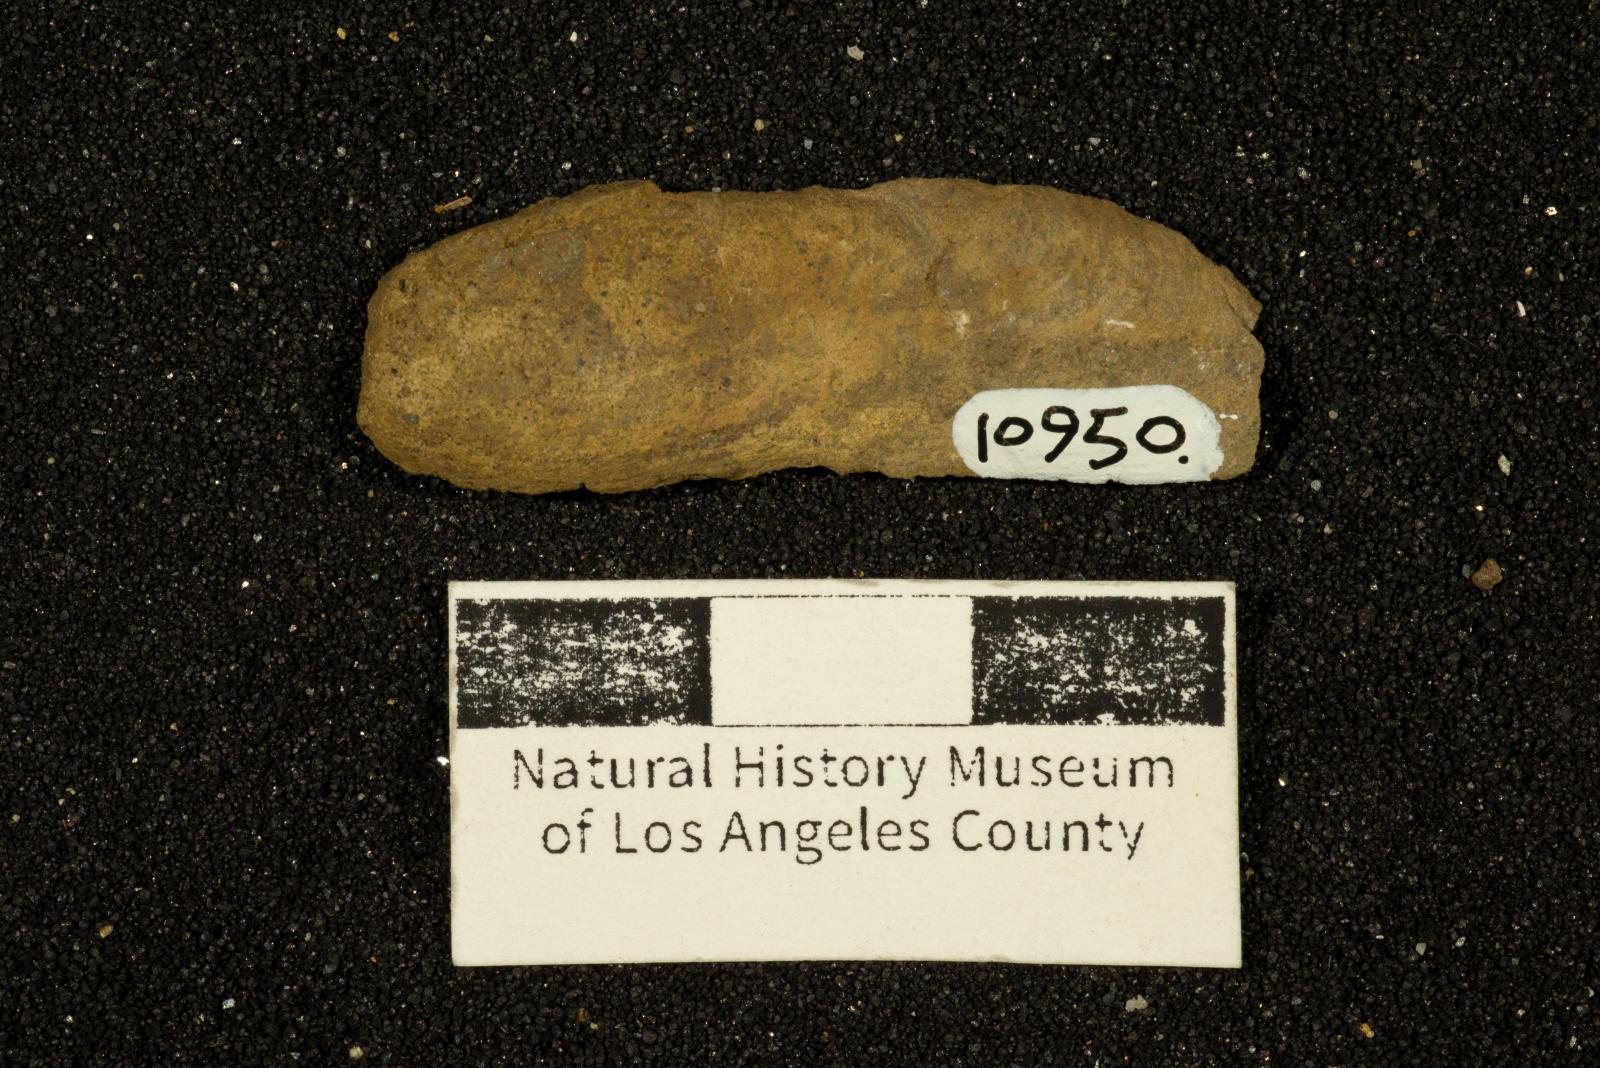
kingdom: Animalia
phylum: Mollusca
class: Bivalvia
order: Mytilida
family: Mytilidae
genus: Inoperna
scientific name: Inoperna bellarugosa
